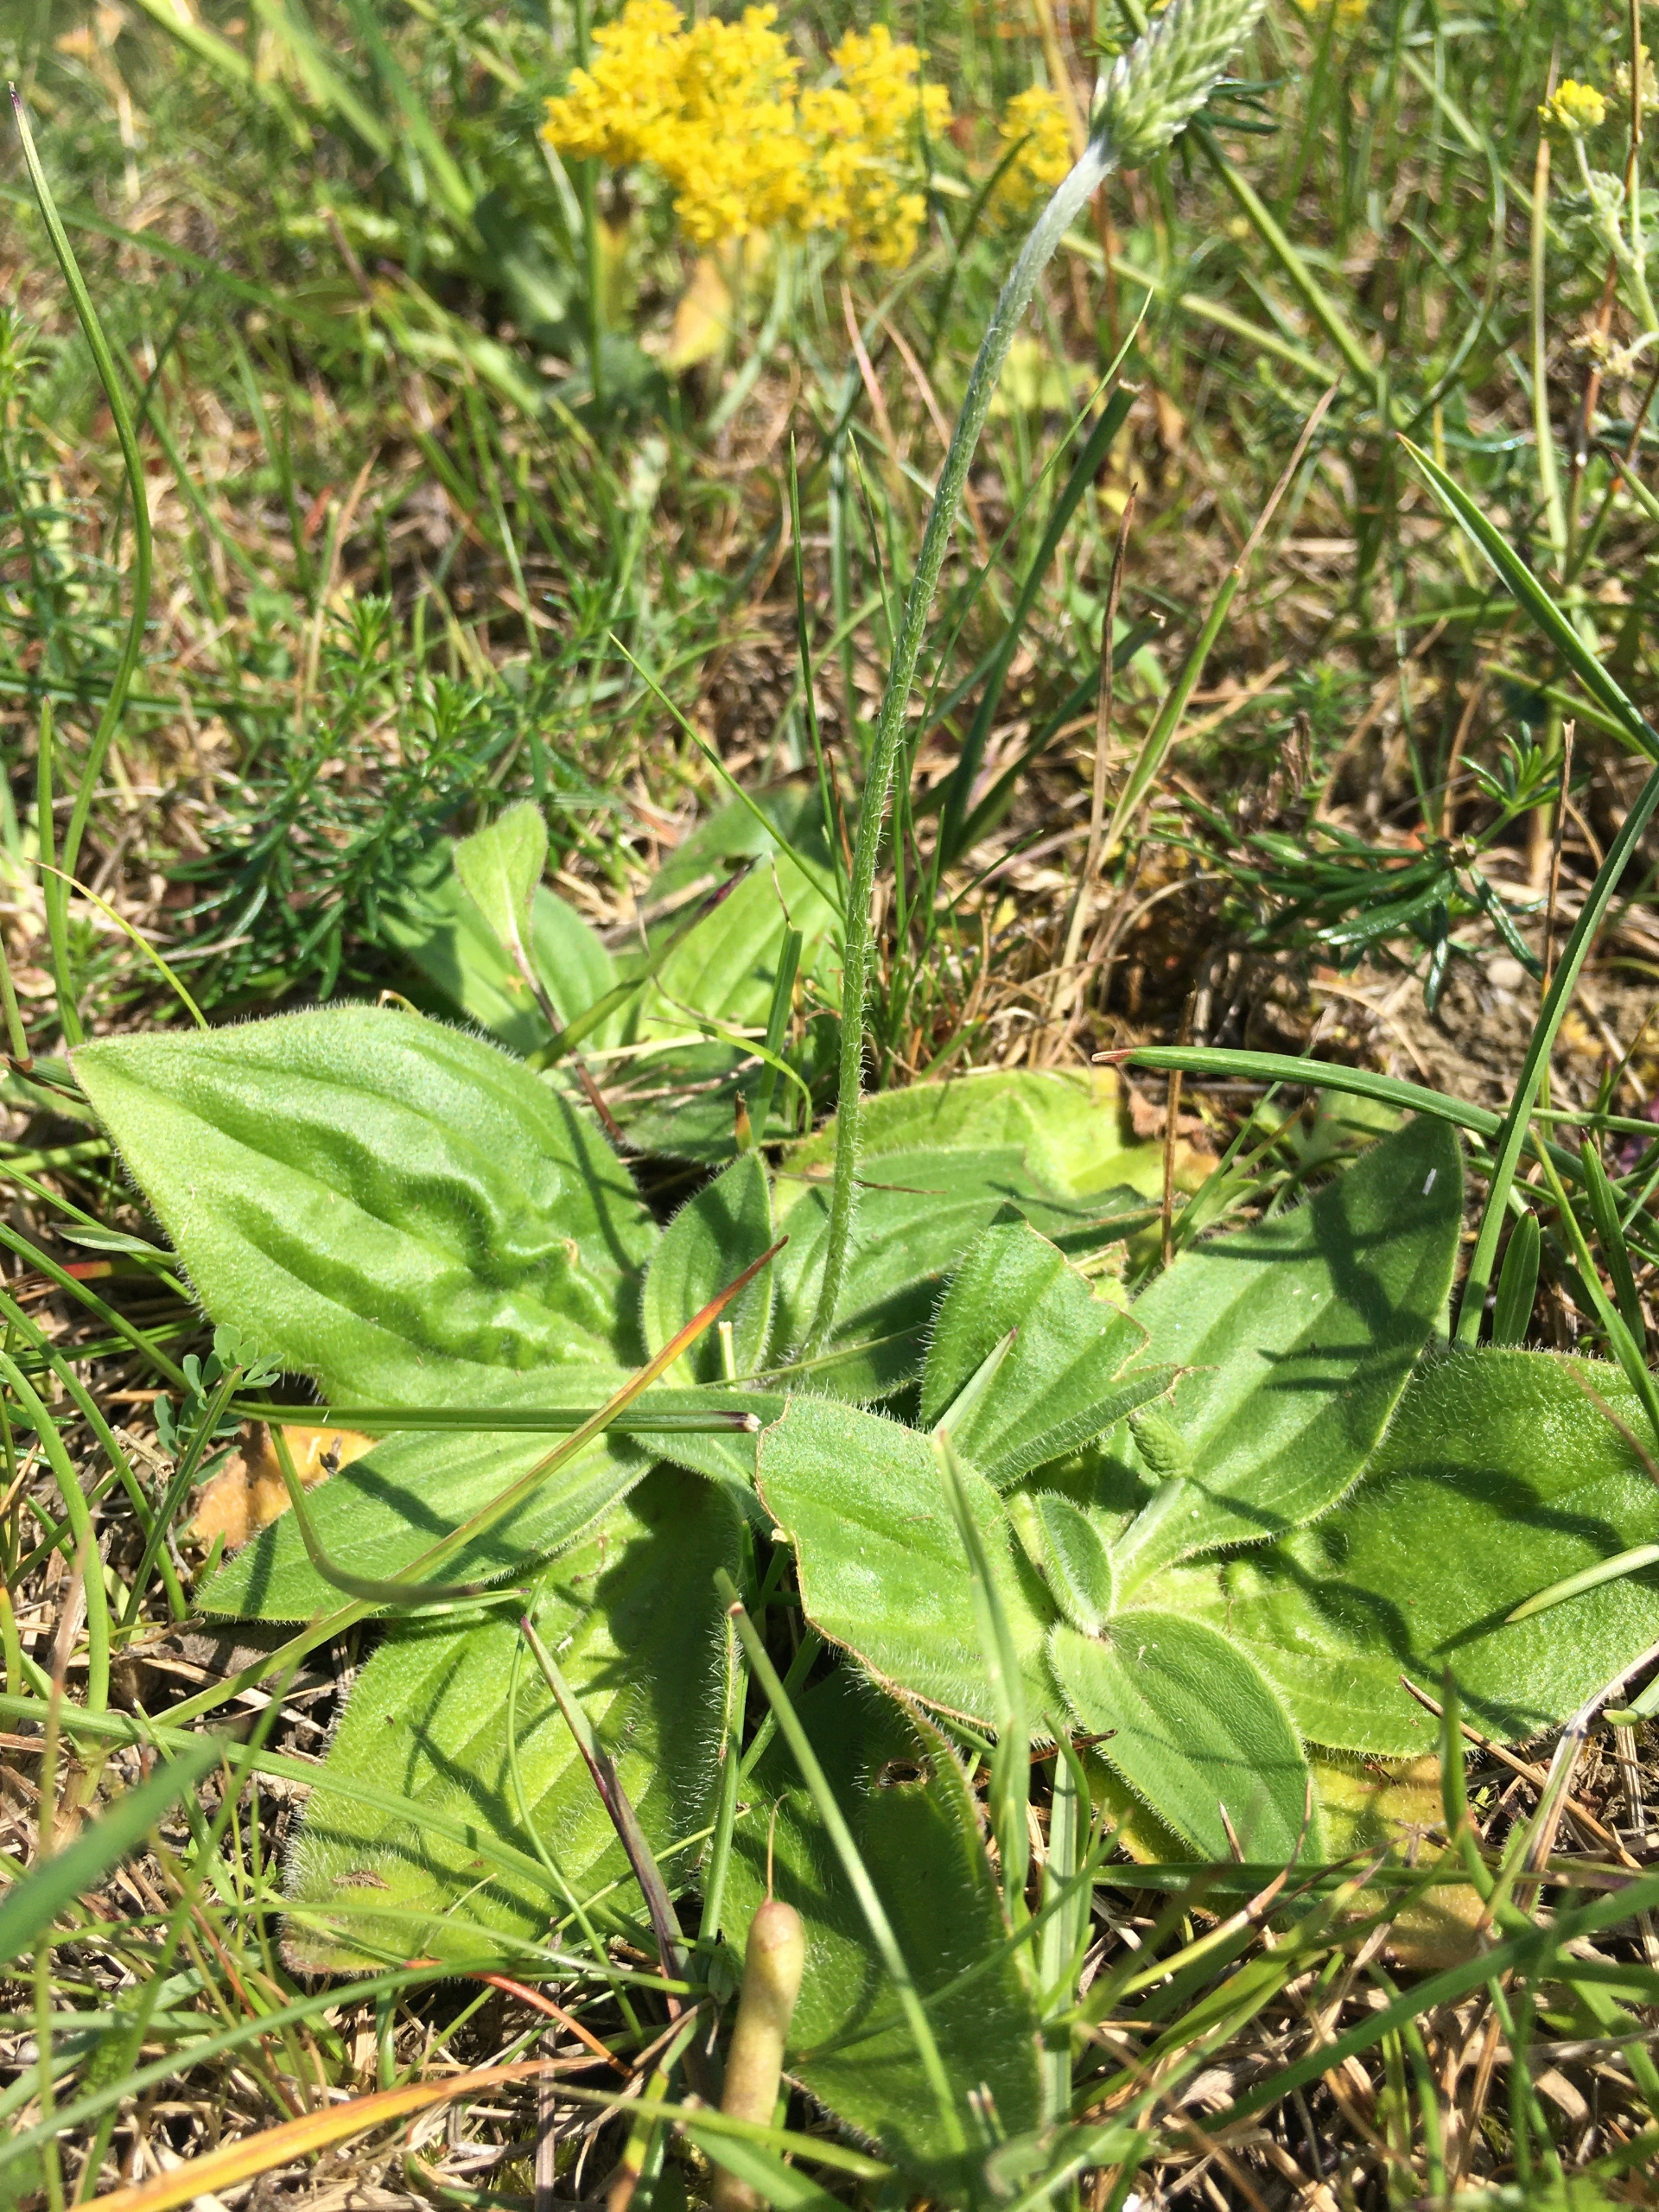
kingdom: Plantae
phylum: Tracheophyta
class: Magnoliopsida
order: Lamiales
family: Plantaginaceae
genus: Plantago
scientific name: Plantago media
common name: Dunet vejbred
